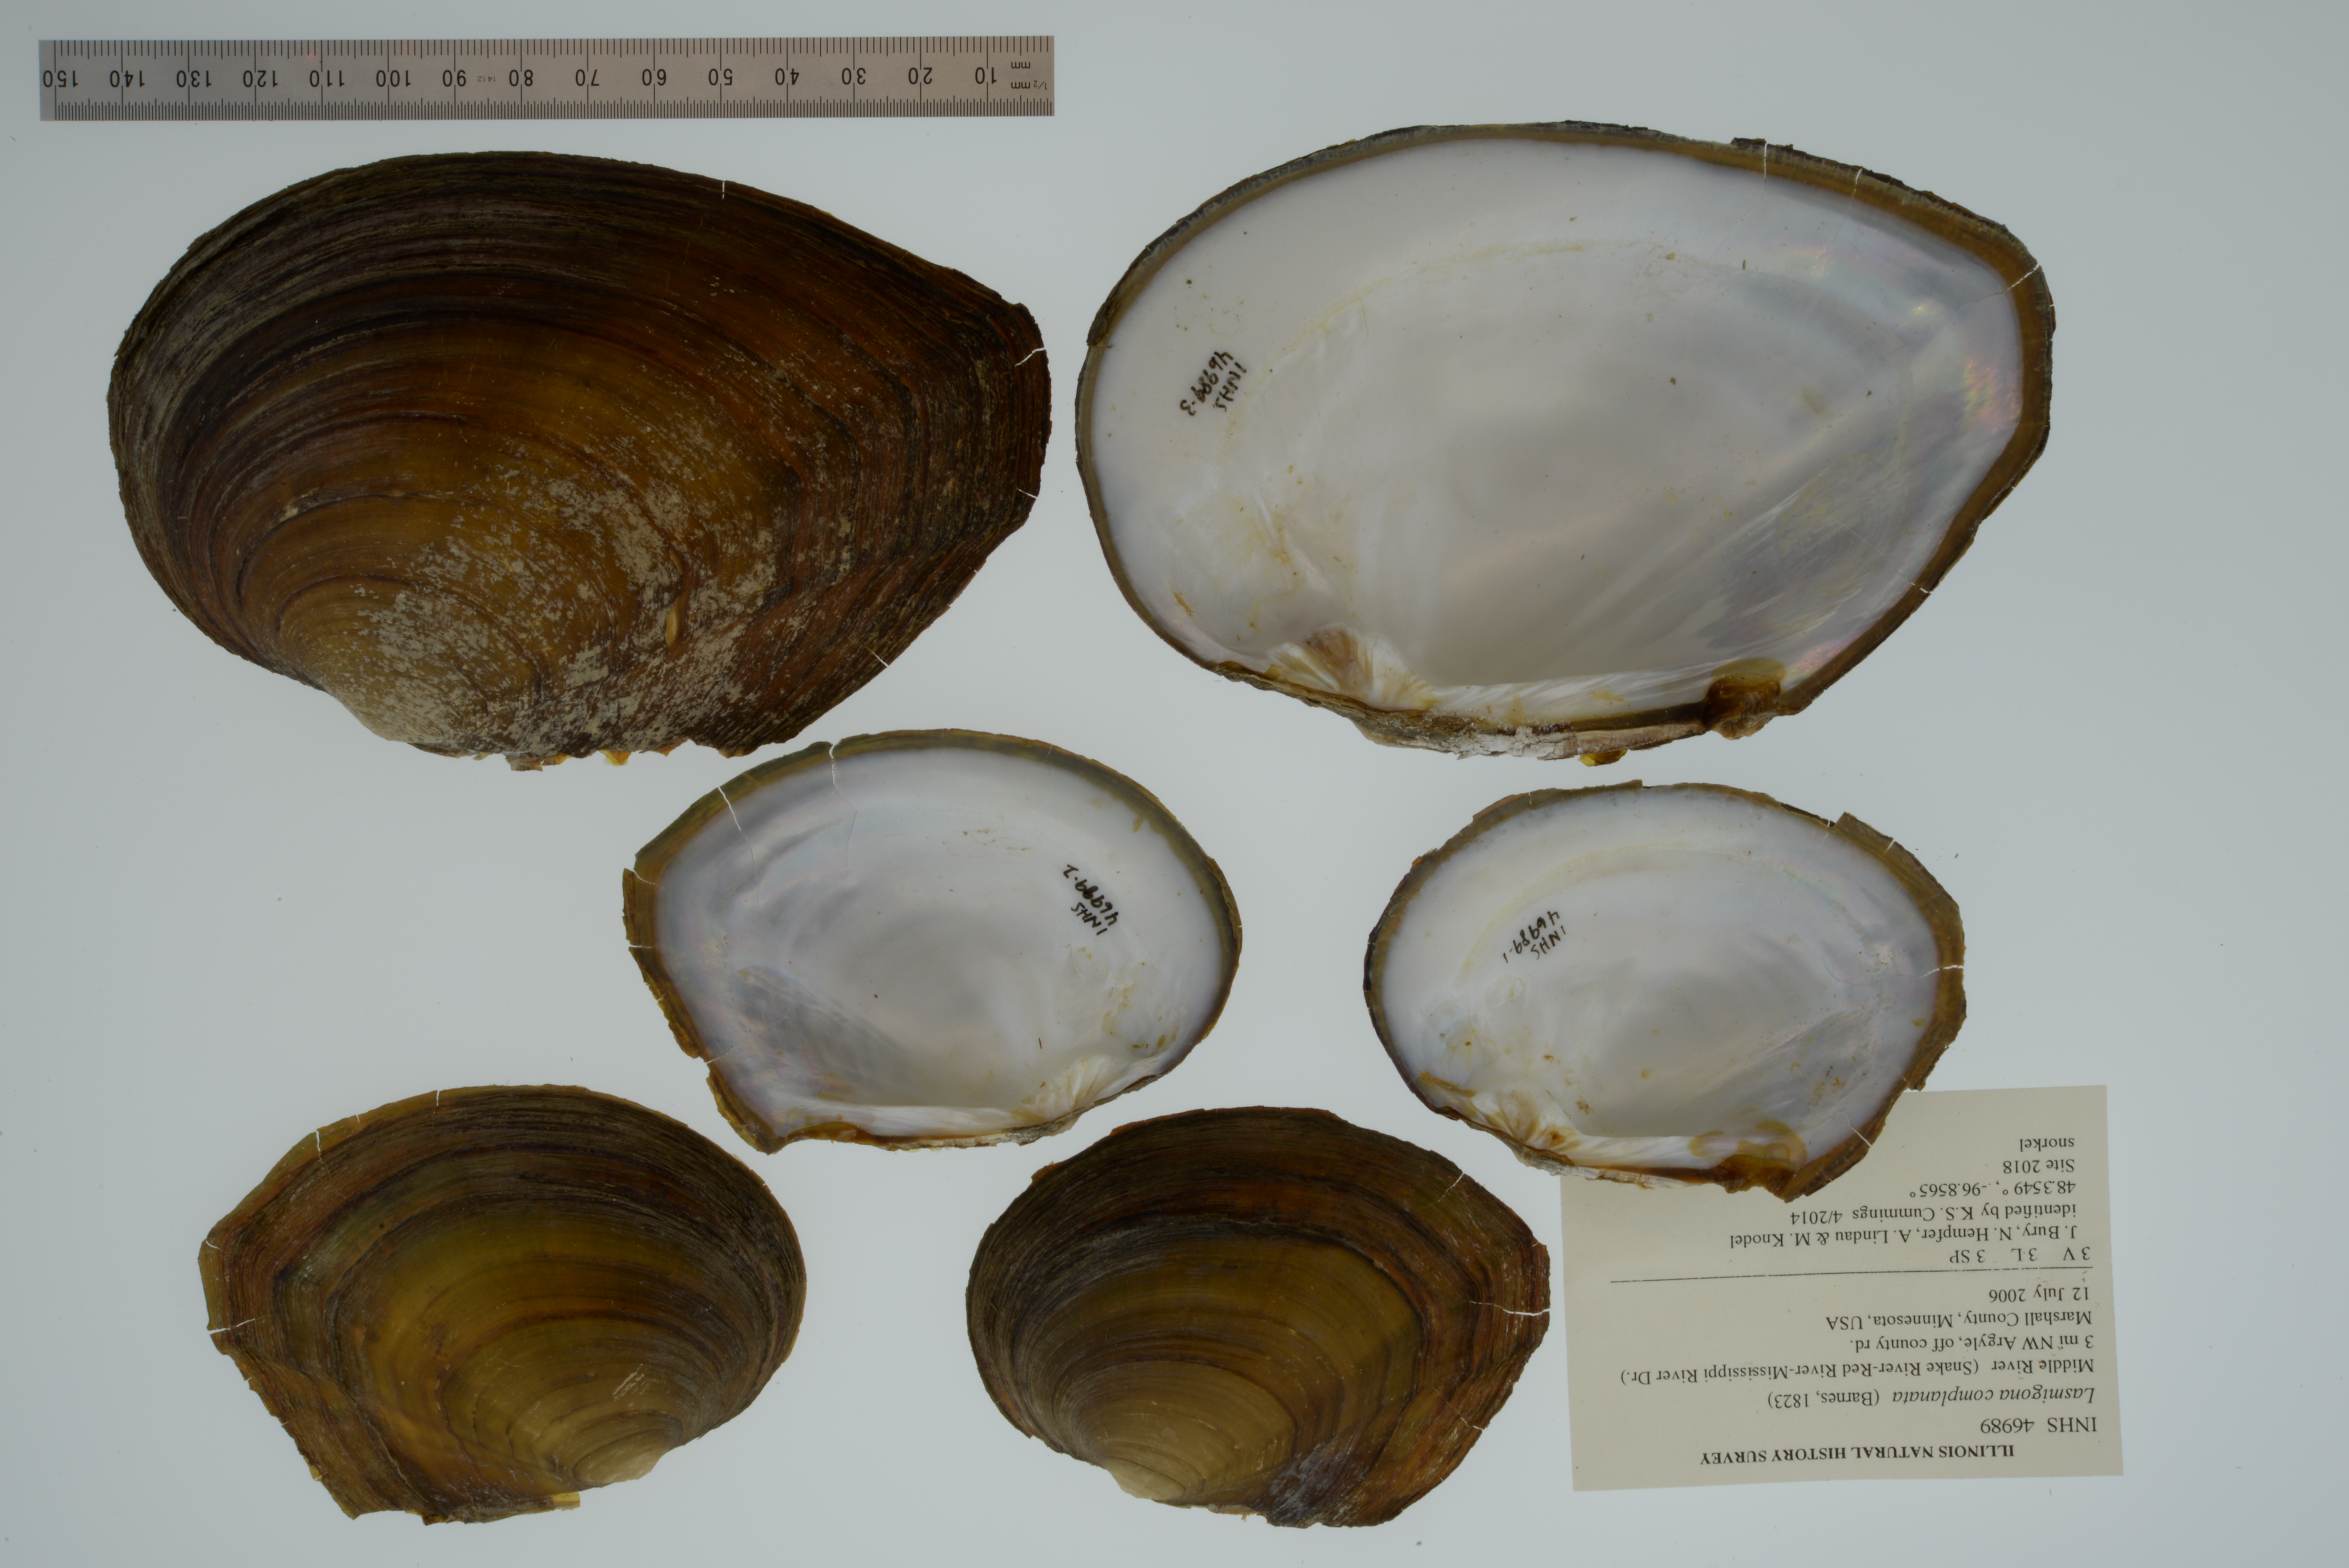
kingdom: Animalia
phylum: Mollusca
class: Bivalvia
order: Unionida
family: Unionidae
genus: Lasmigona
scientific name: Lasmigona complanata
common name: White heelsplitter
